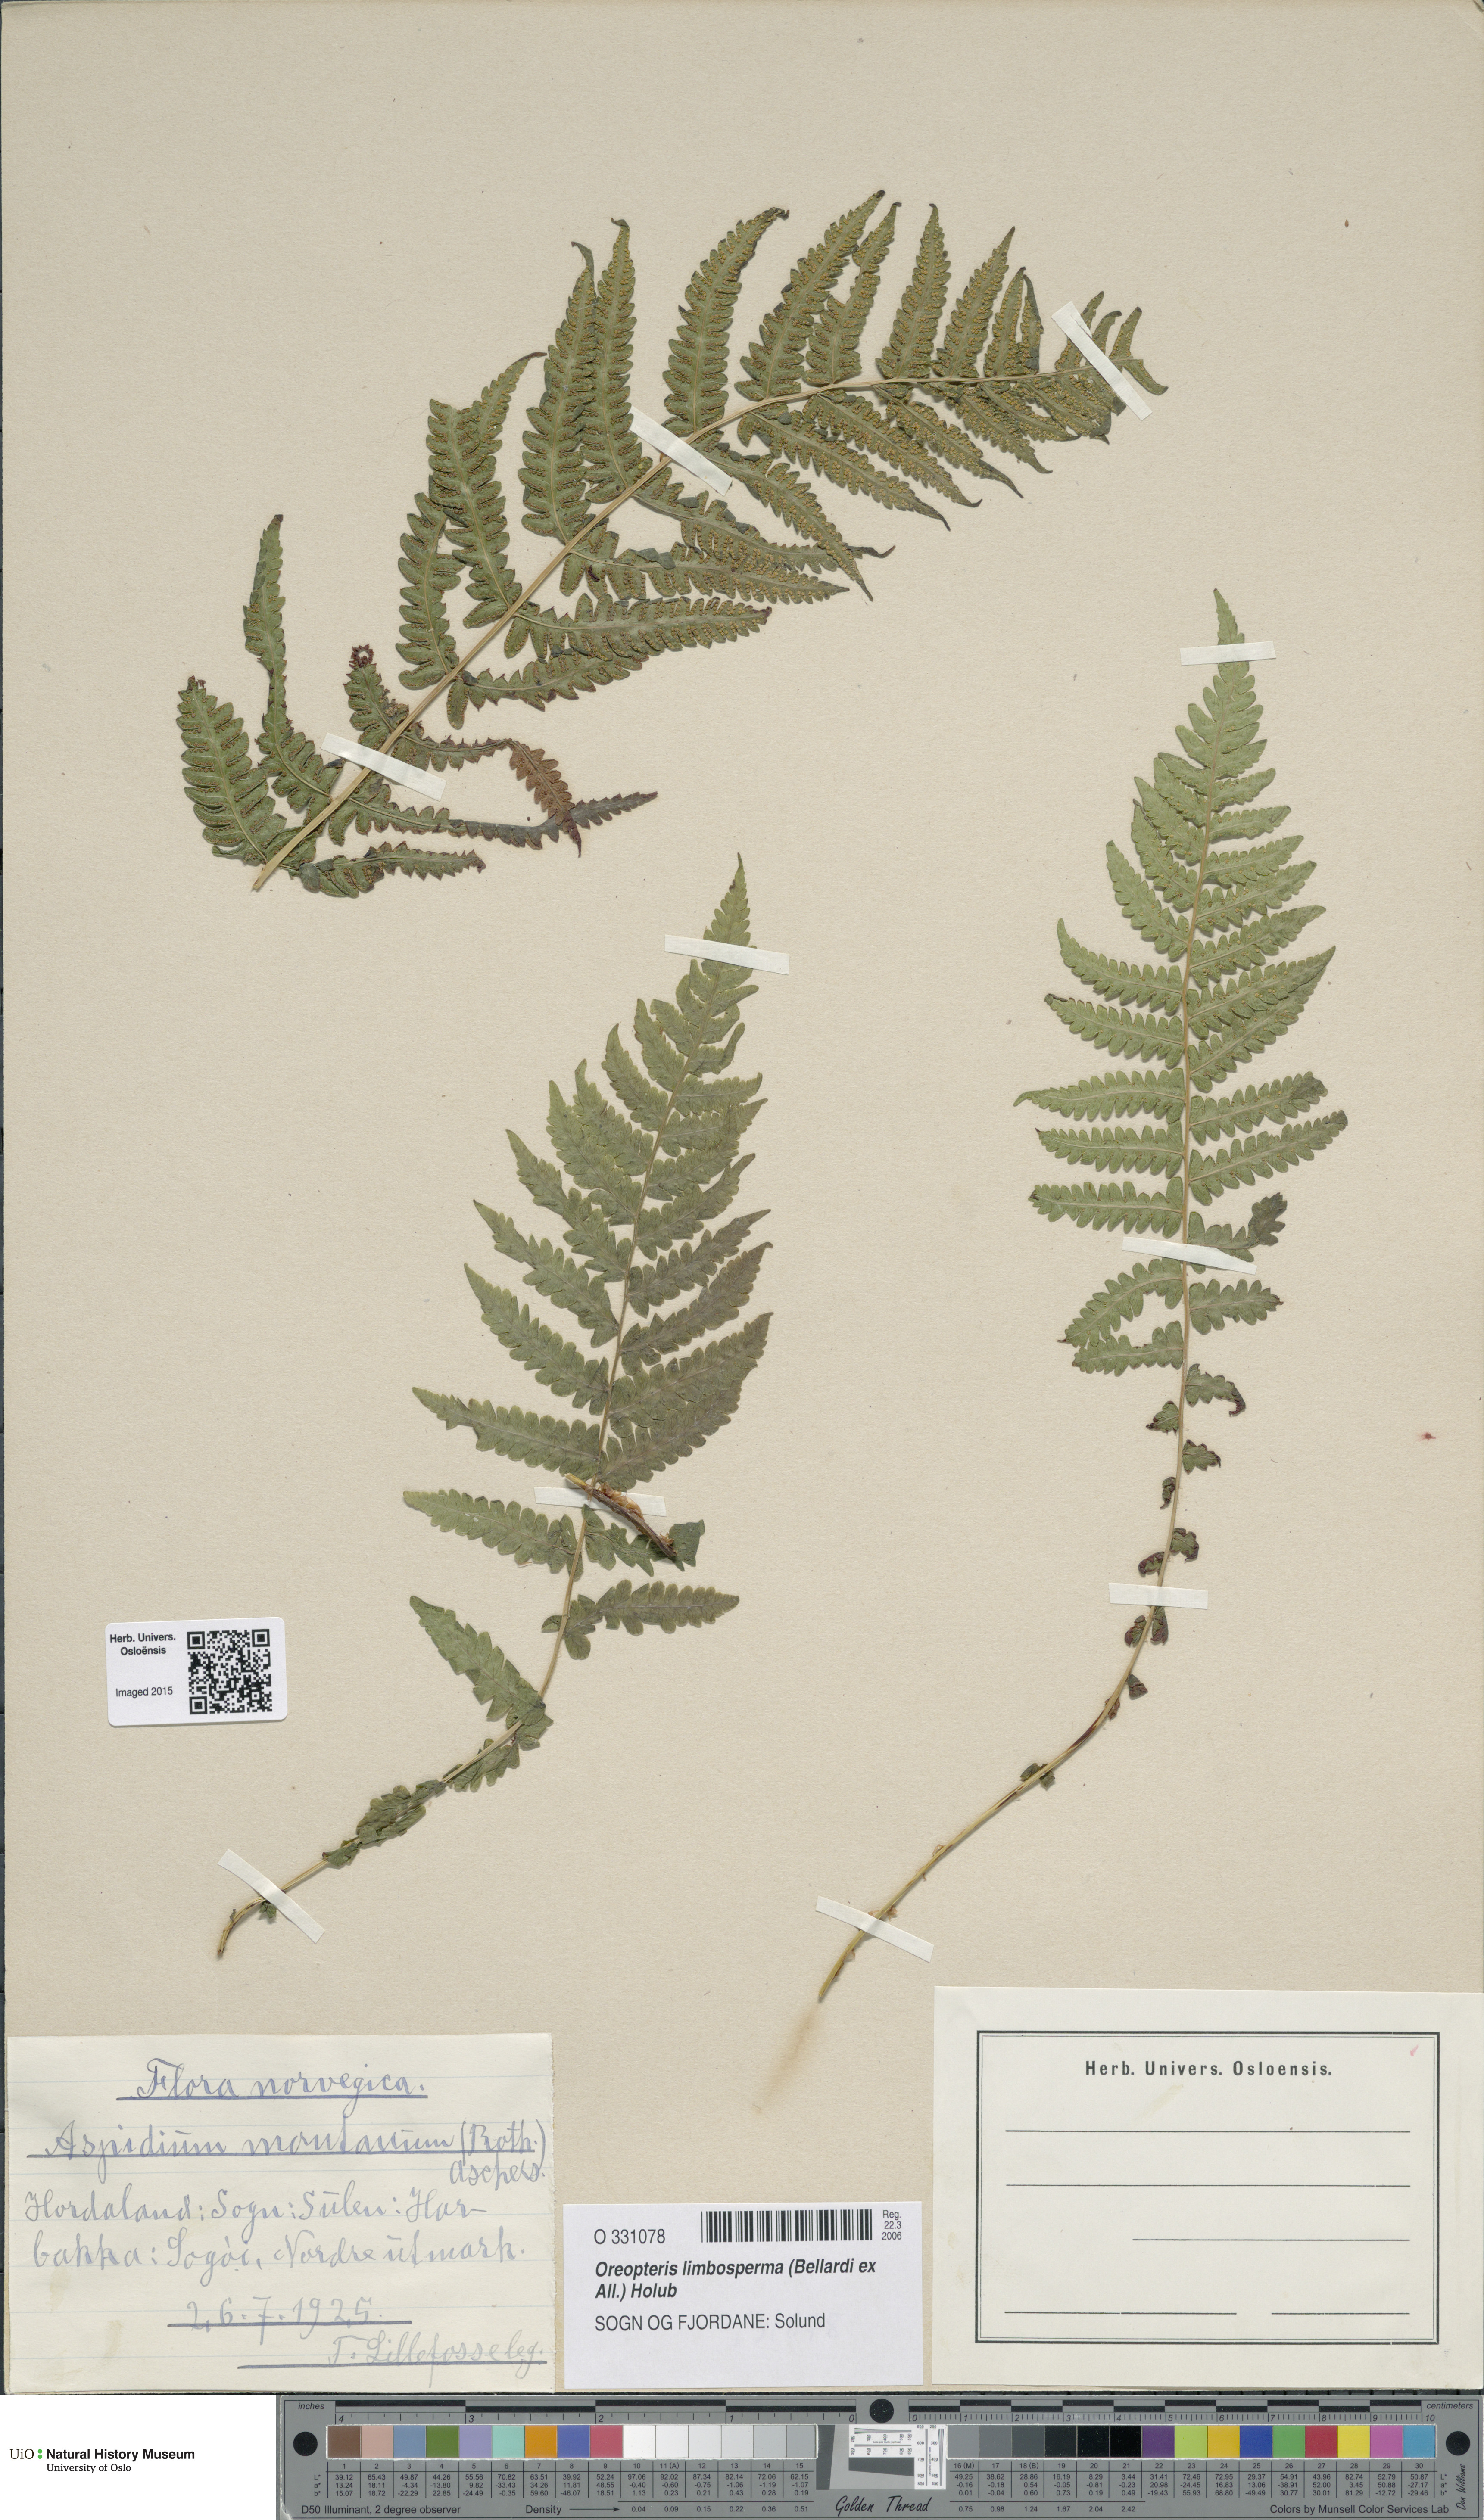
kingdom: Plantae
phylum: Tracheophyta
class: Polypodiopsida
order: Polypodiales
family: Thelypteridaceae
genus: Oreopteris
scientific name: Oreopteris limbosperma
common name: Lemon-scented fern
